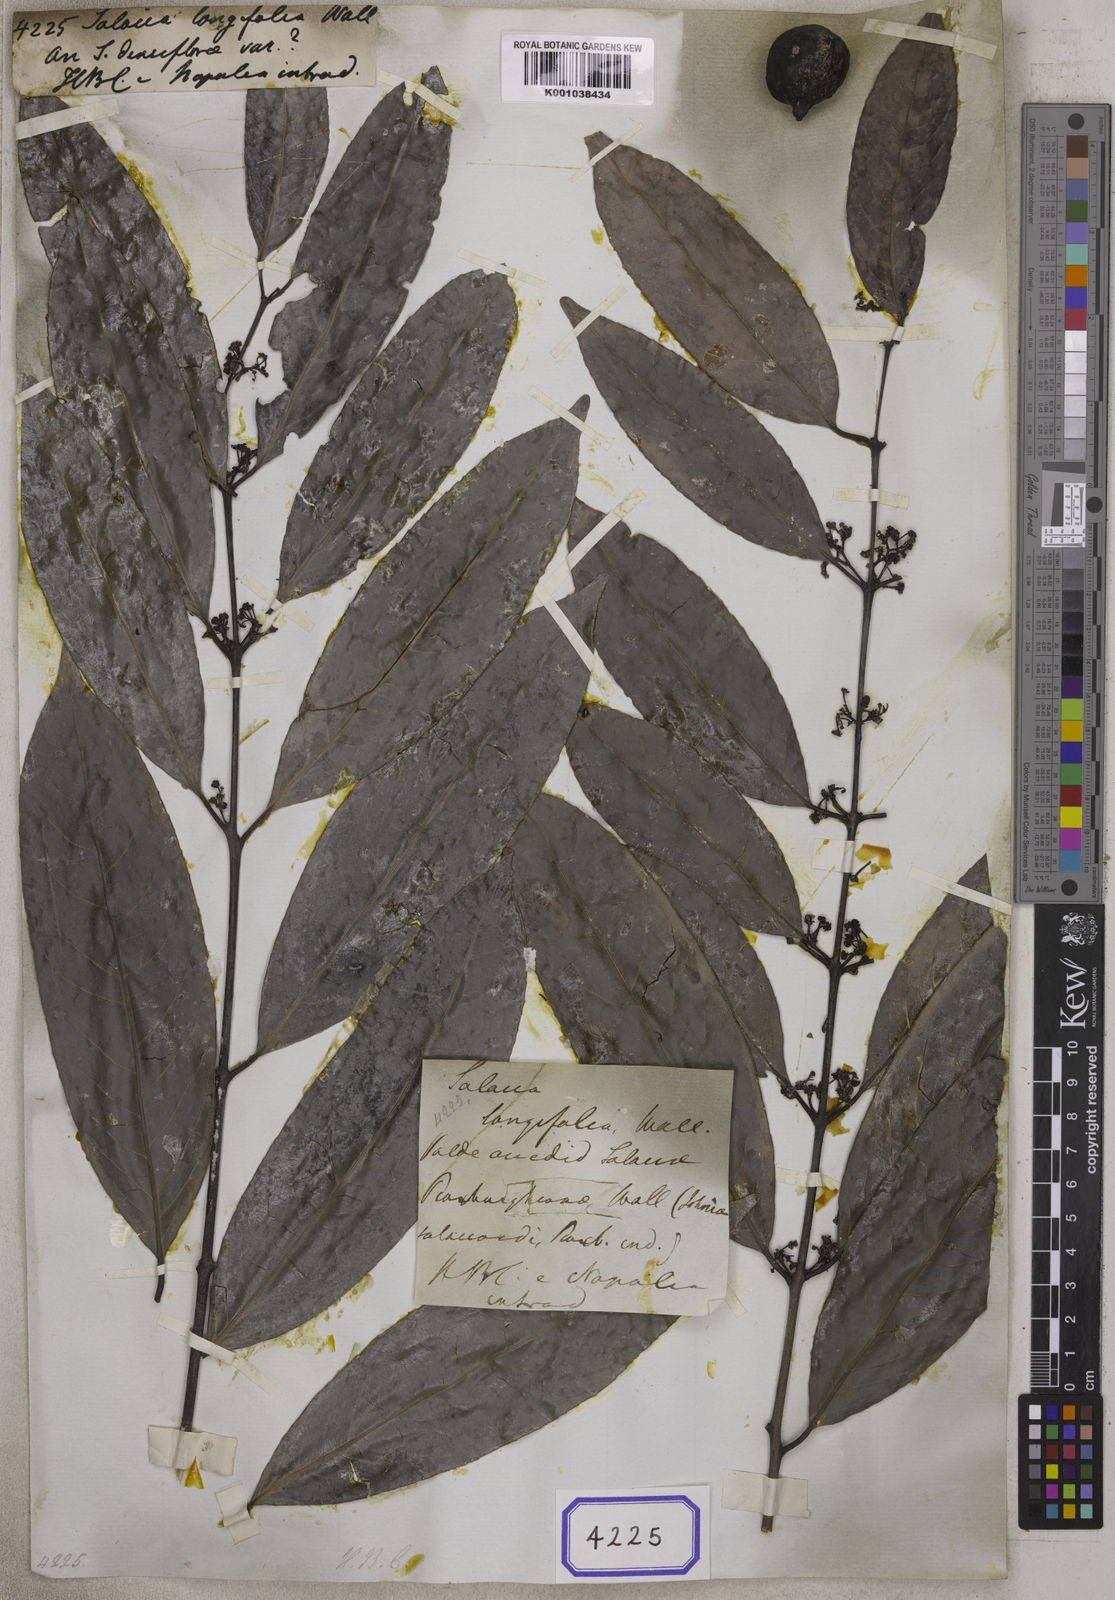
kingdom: Plantae
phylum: Tracheophyta
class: Magnoliopsida
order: Celastrales
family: Celastraceae
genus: Salacia
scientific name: Salacia floribunda
